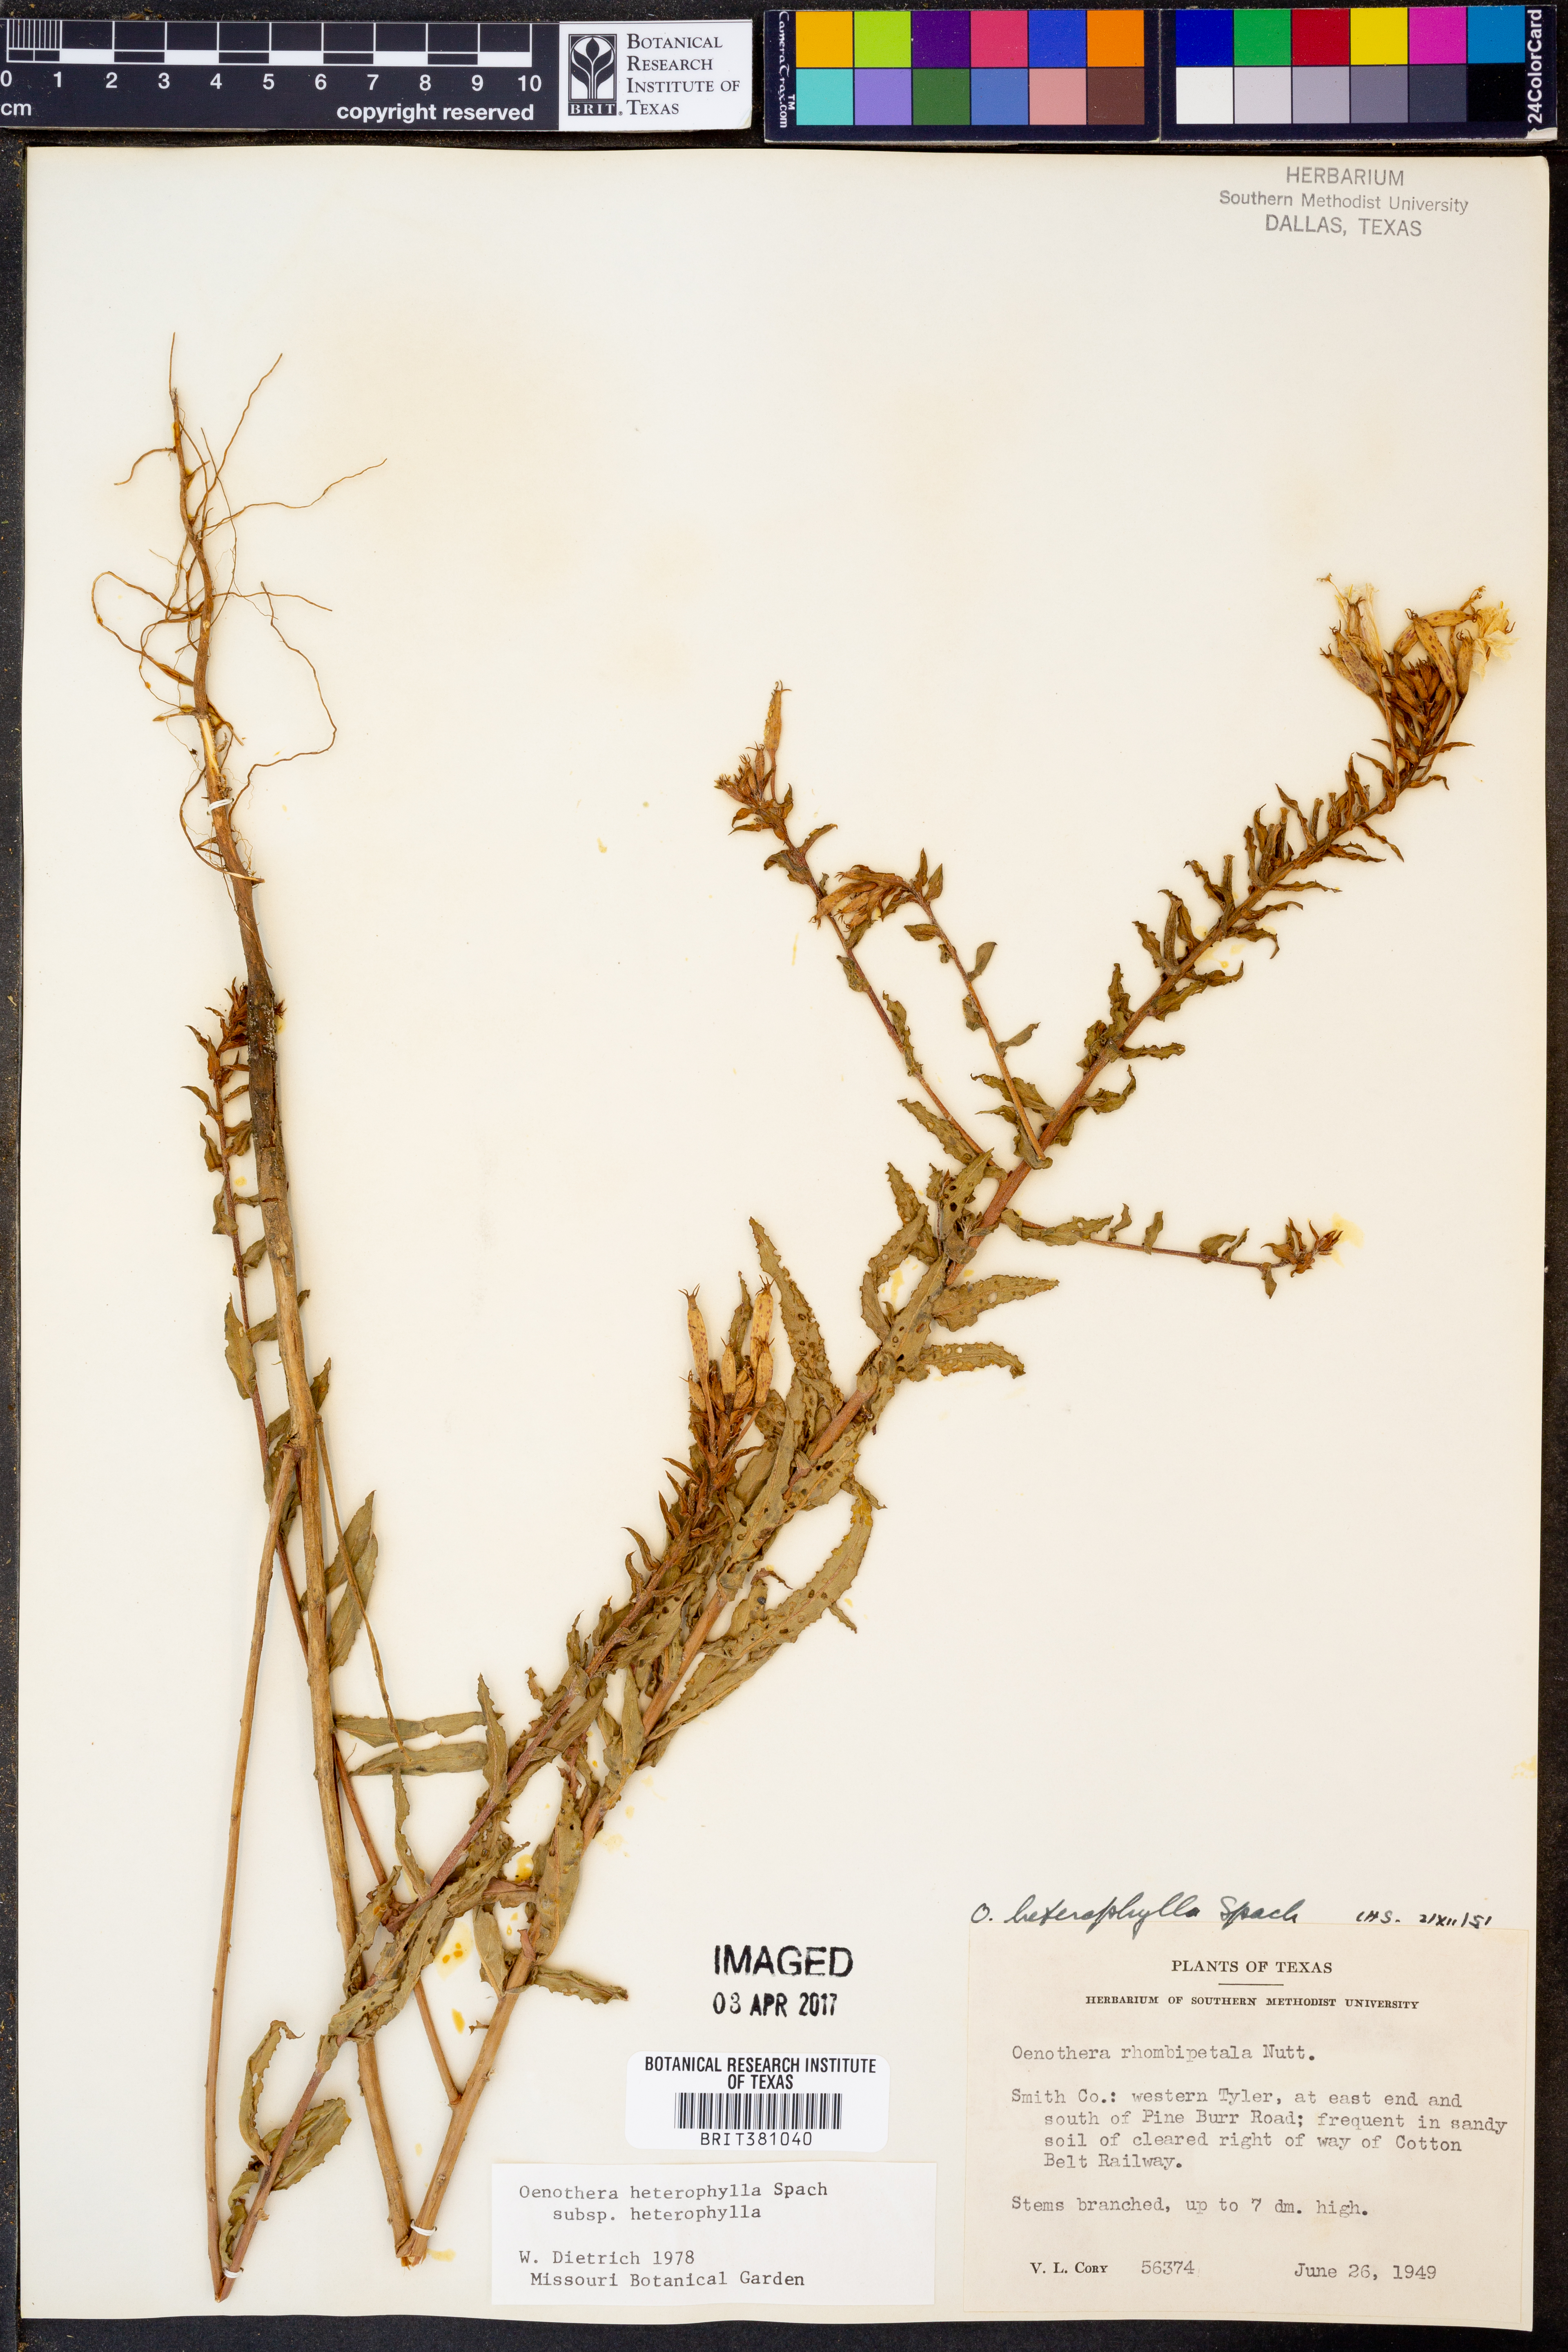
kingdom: Plantae
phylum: Tracheophyta
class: Magnoliopsida
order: Myrtales
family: Onagraceae
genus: Oenothera
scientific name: Oenothera heterophylla
